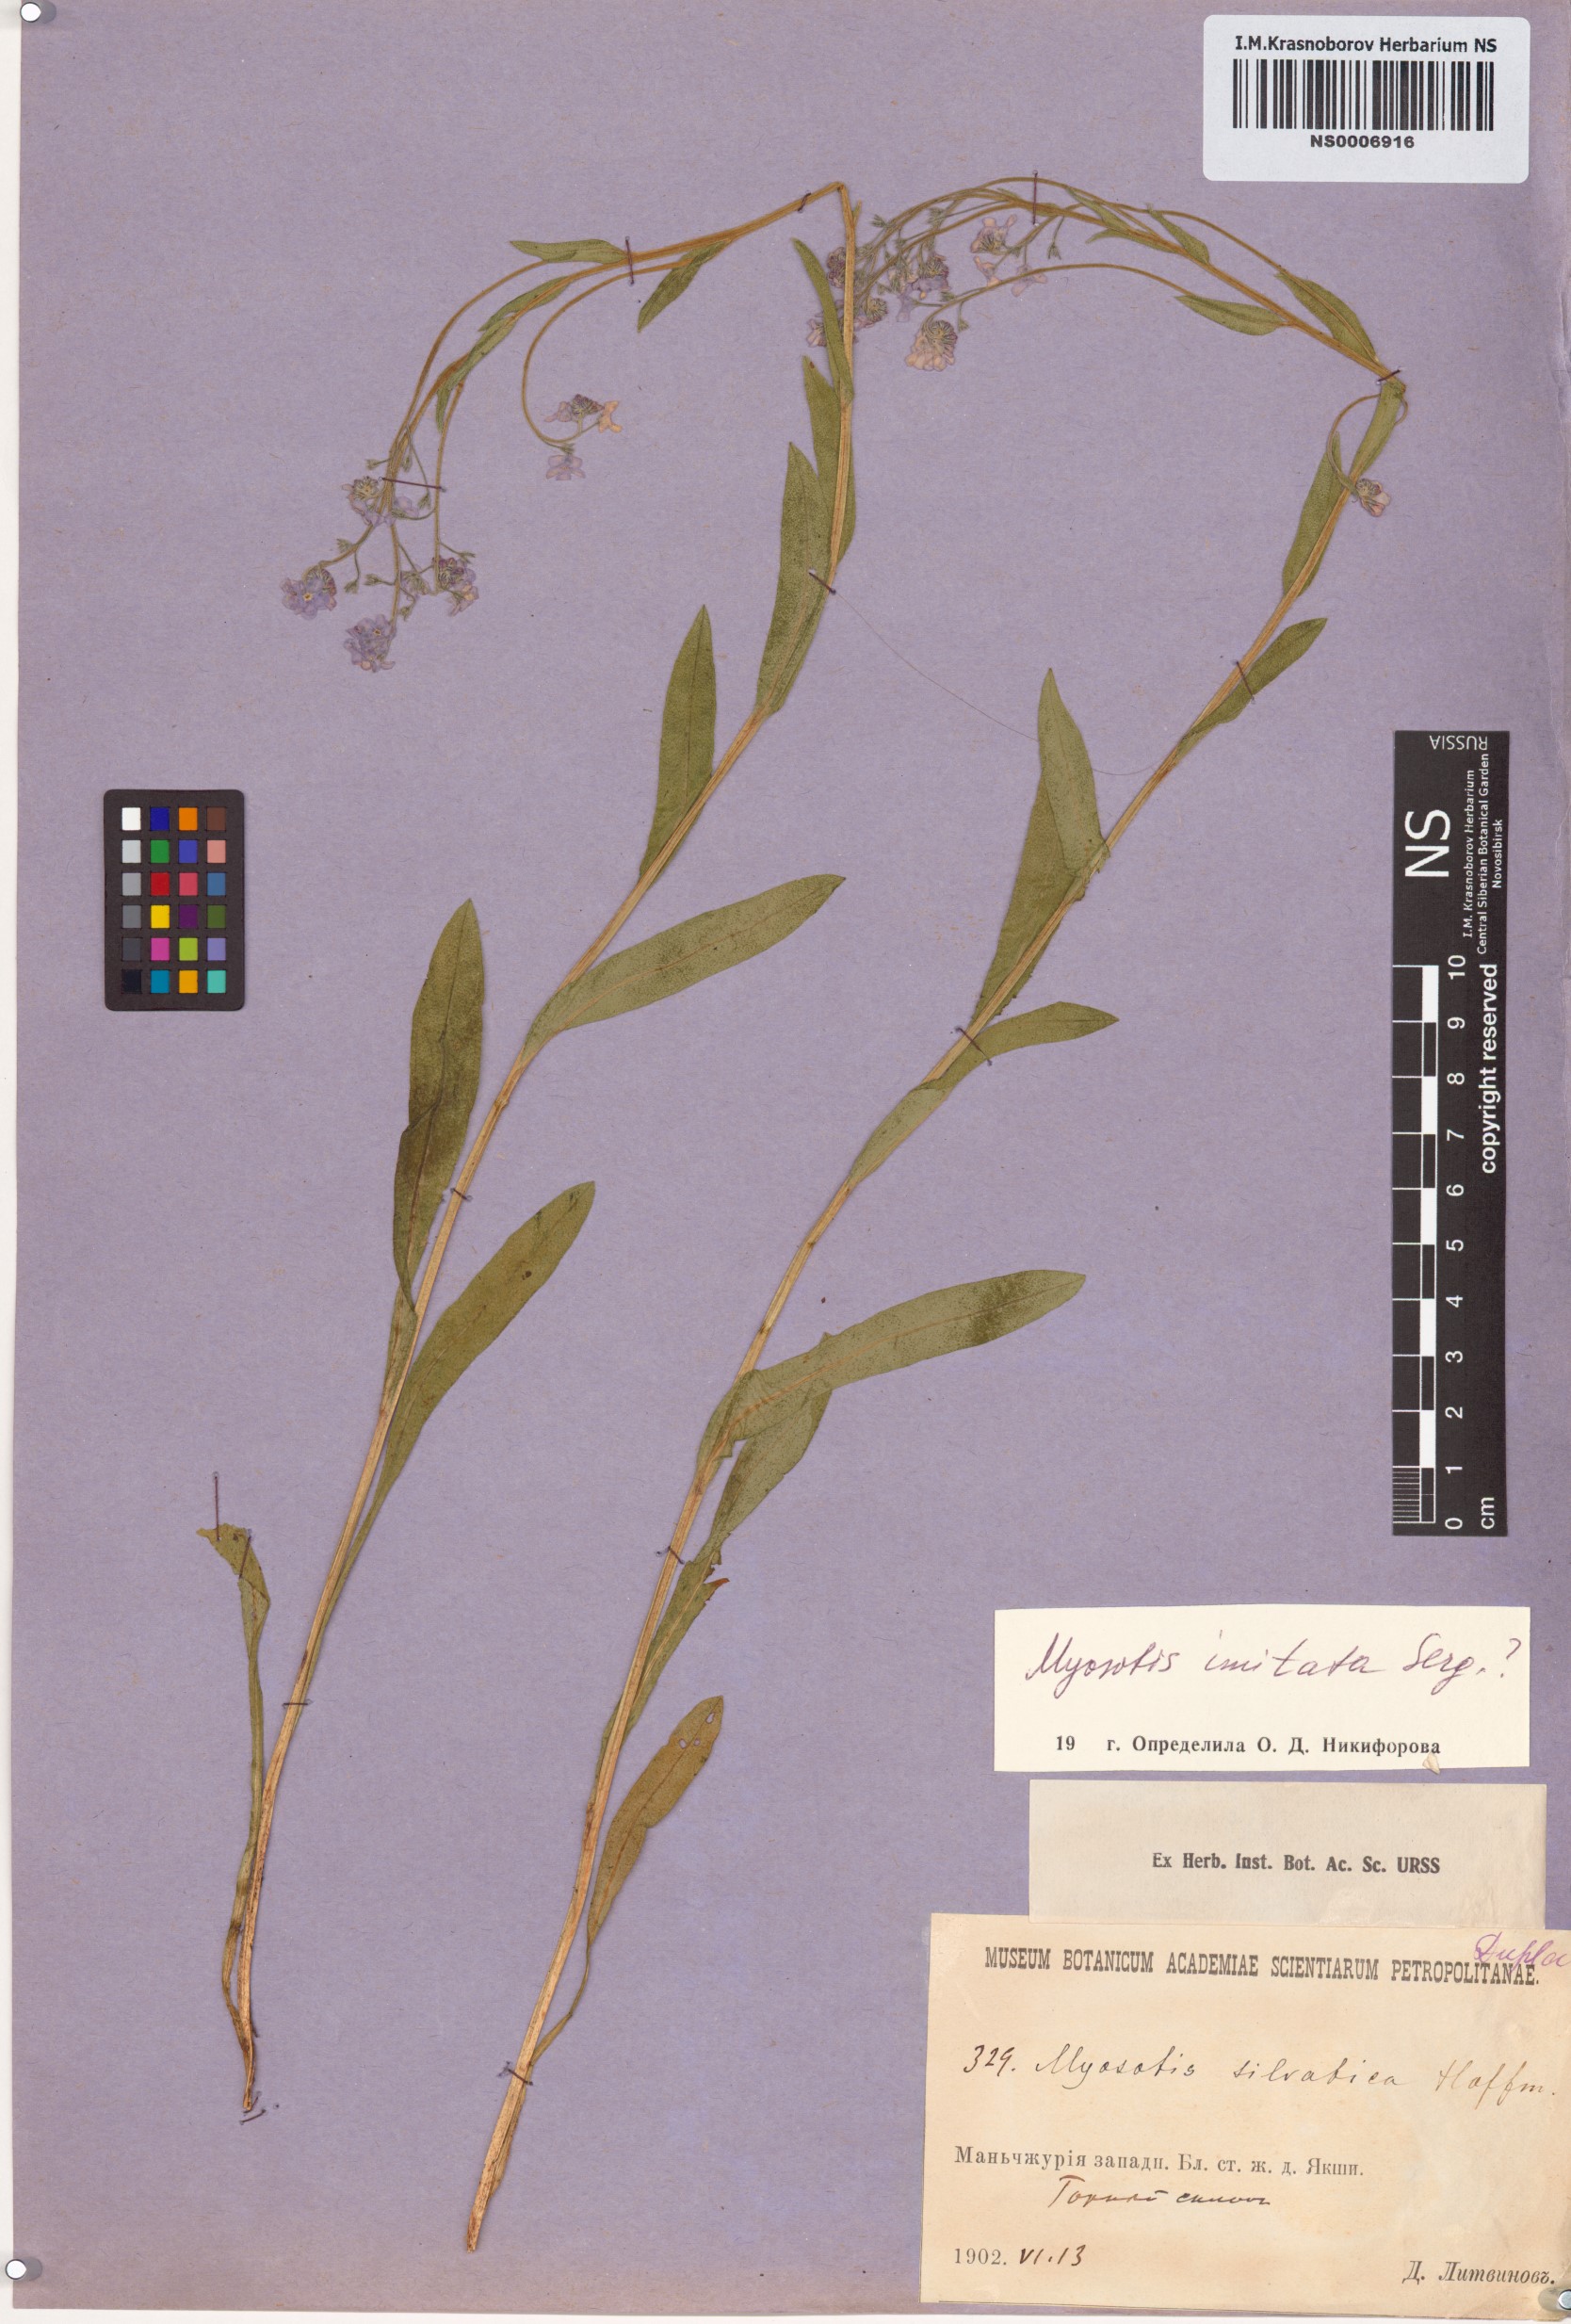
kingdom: Plantae
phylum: Tracheophyta
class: Magnoliopsida
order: Boraginales
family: Boraginaceae
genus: Myosotis
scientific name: Myosotis imitata
